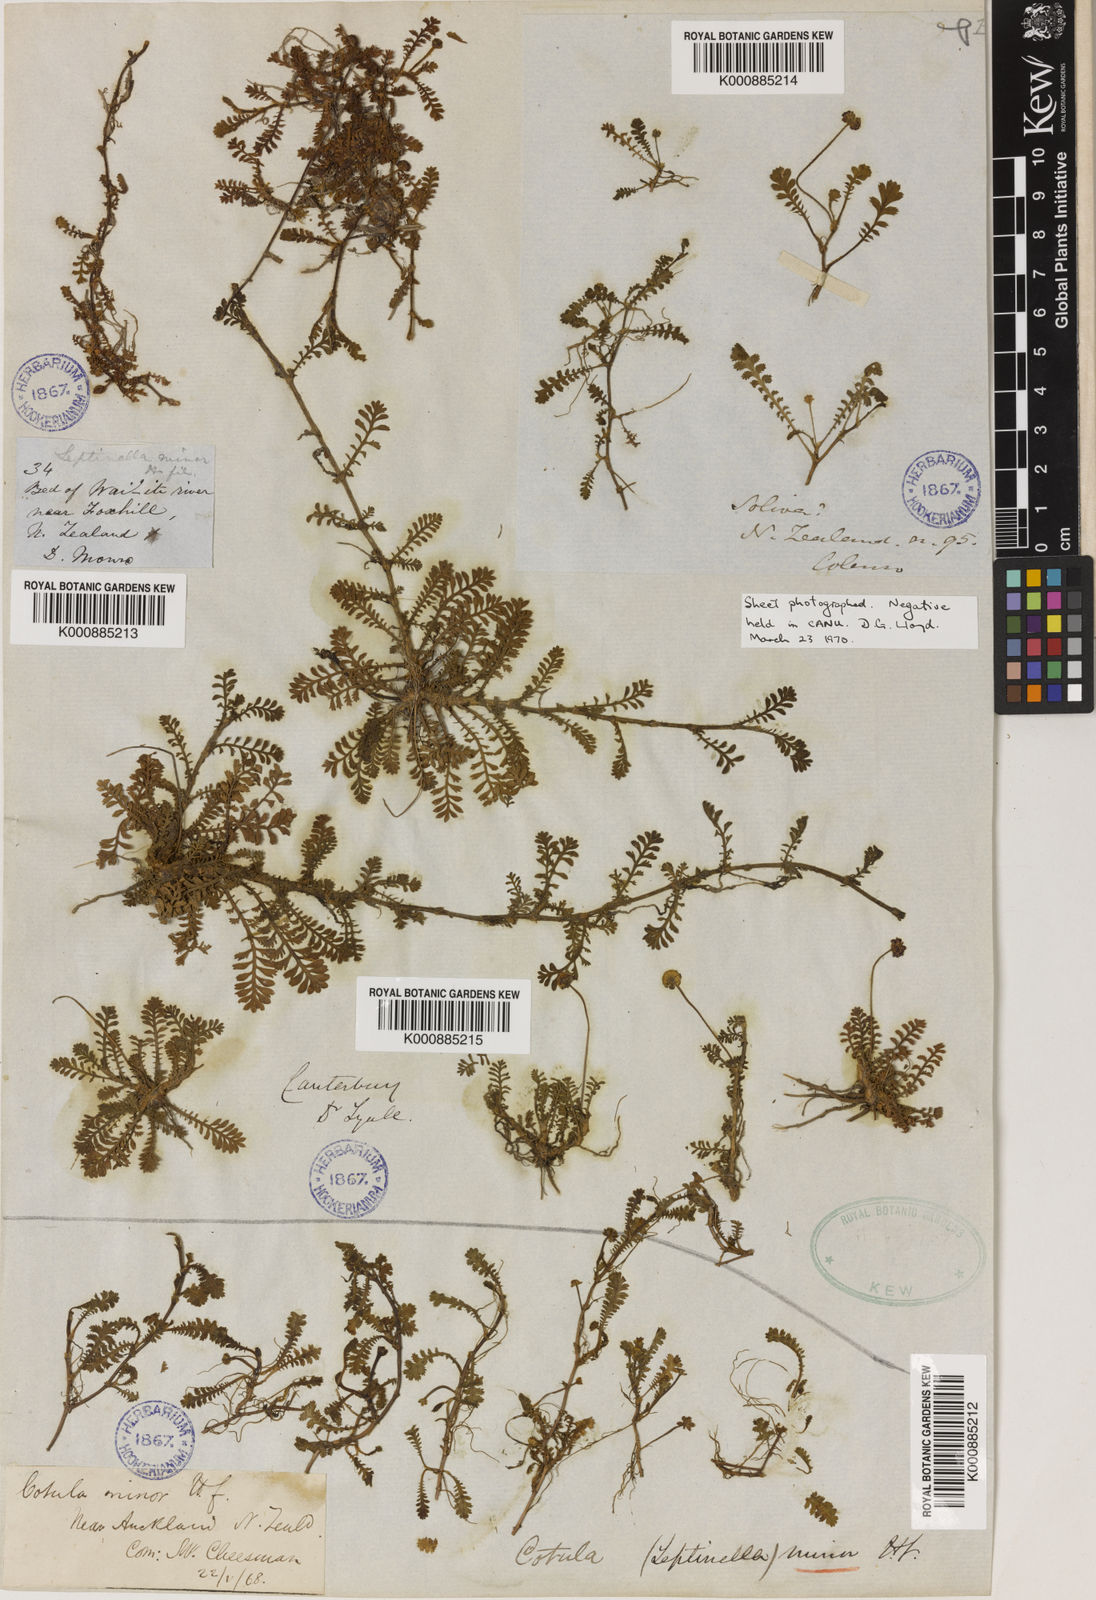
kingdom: Plantae
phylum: Tracheophyta
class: Magnoliopsida
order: Asterales
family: Asteraceae
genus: Leptinella
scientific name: Leptinella minor
